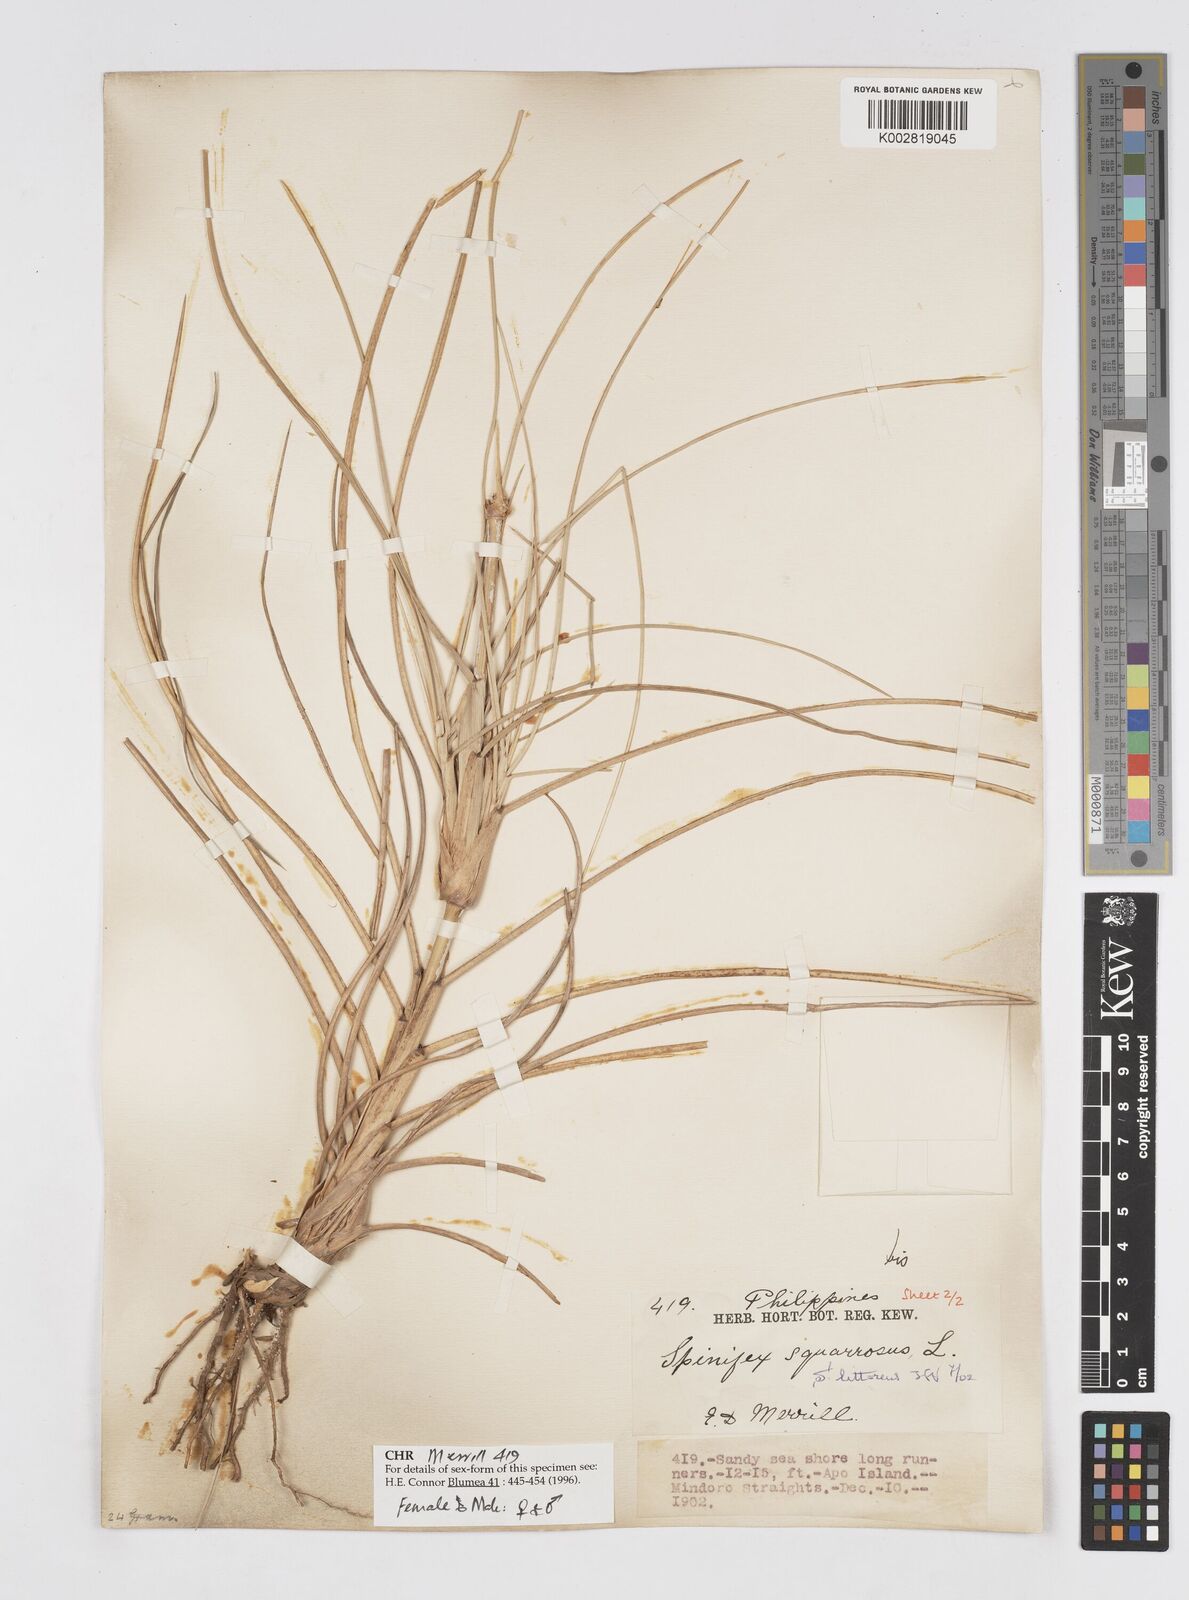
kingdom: Plantae
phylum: Tracheophyta
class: Liliopsida
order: Poales
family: Poaceae
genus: Spinifex
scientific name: Spinifex littoreus
